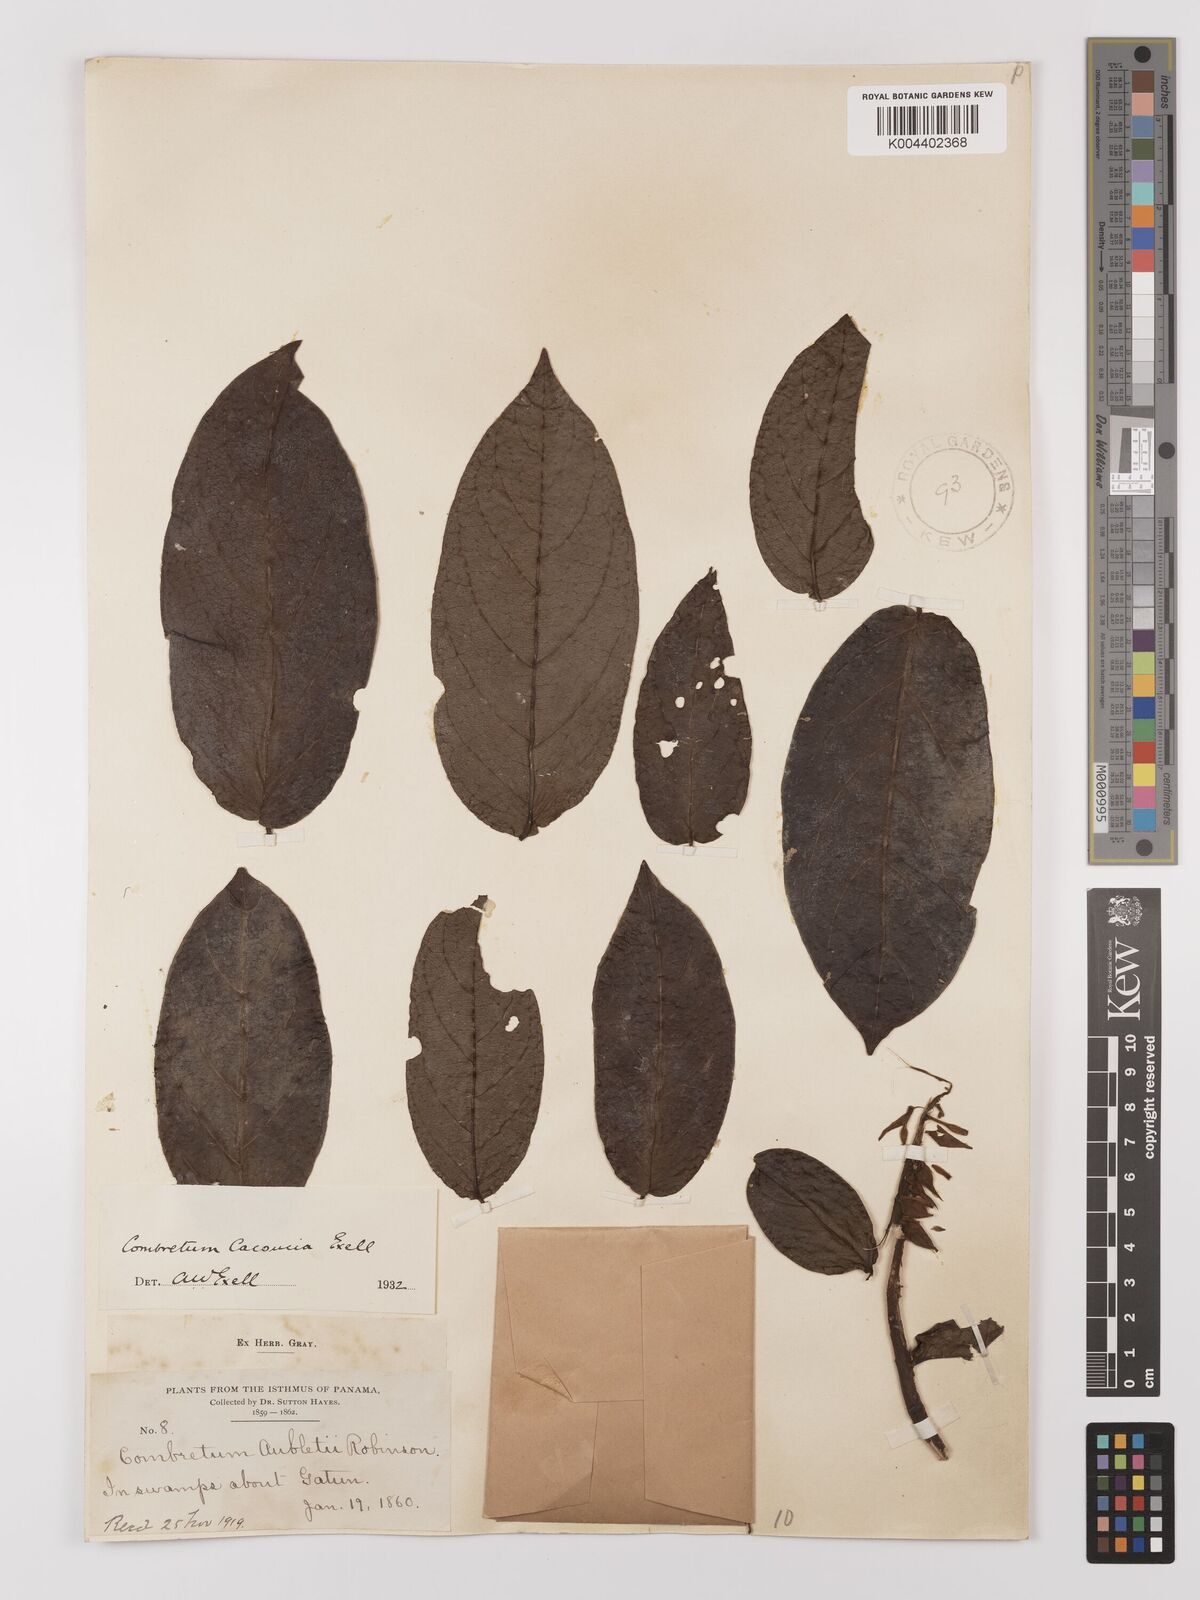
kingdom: Plantae
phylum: Tracheophyta
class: Magnoliopsida
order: Myrtales
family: Combretaceae
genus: Combretum
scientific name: Combretum cacoucia
